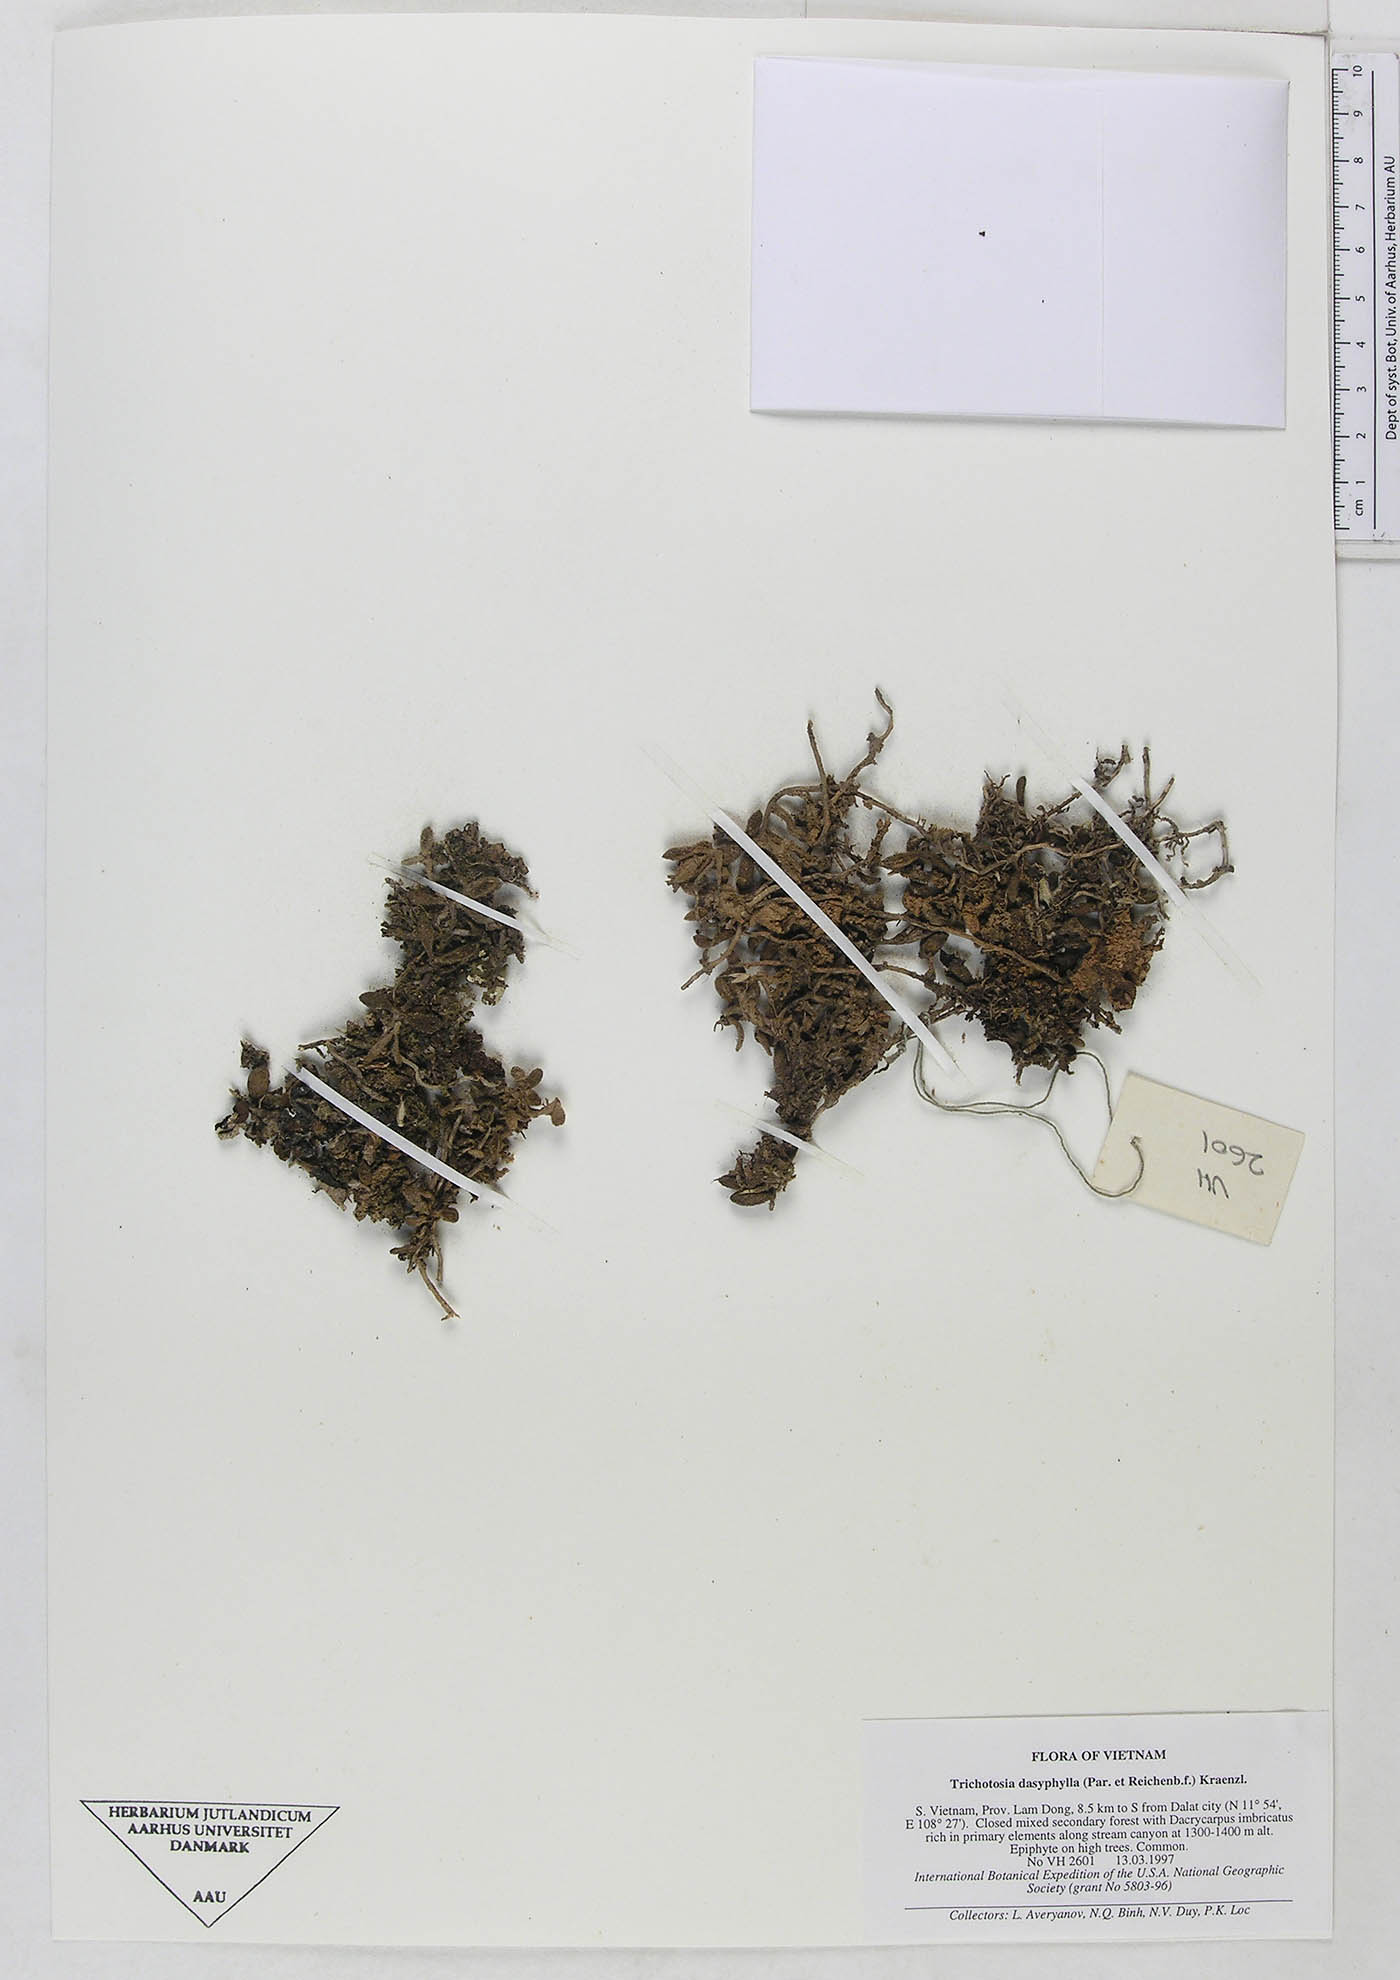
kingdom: Plantae
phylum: Tracheophyta
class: Liliopsida
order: Asparagales
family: Orchidaceae
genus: Trichotosia
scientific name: Trichotosia dasyphylla
